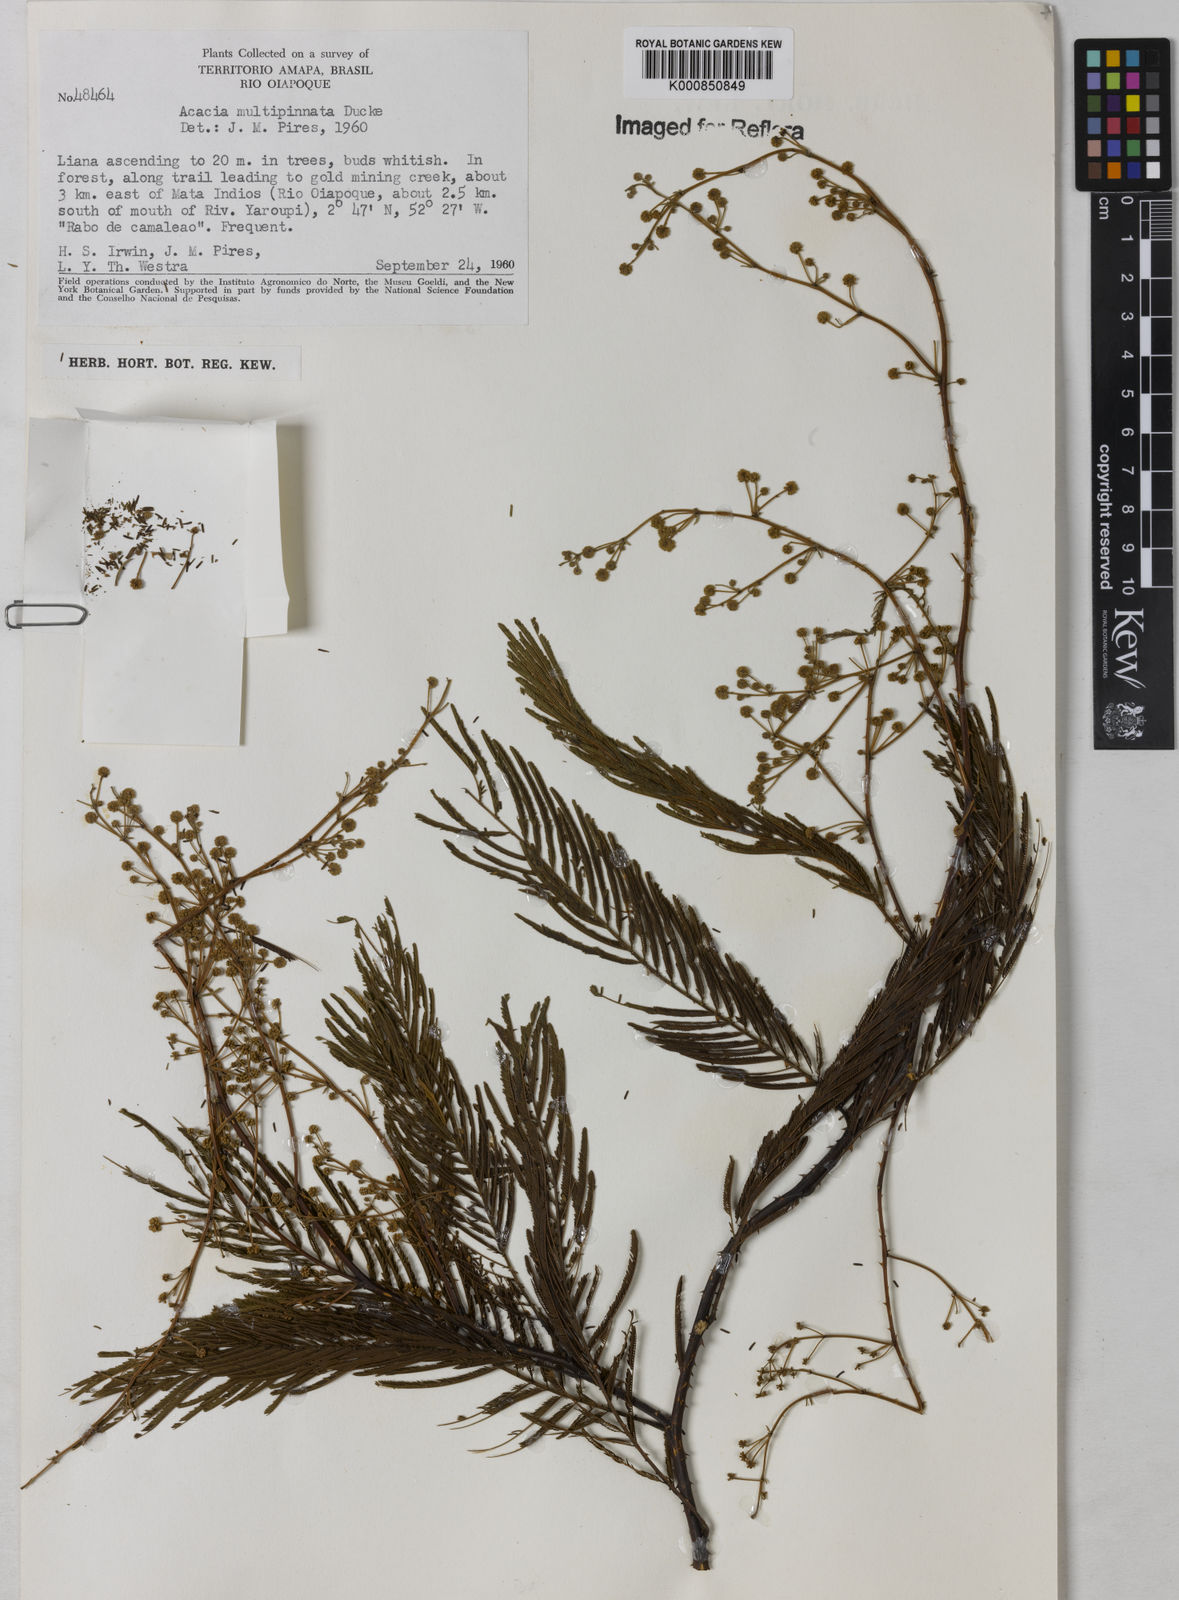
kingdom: Plantae
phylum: Tracheophyta
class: Magnoliopsida
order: Fabales
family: Fabaceae
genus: Senegalia
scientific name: Senegalia paniculata
